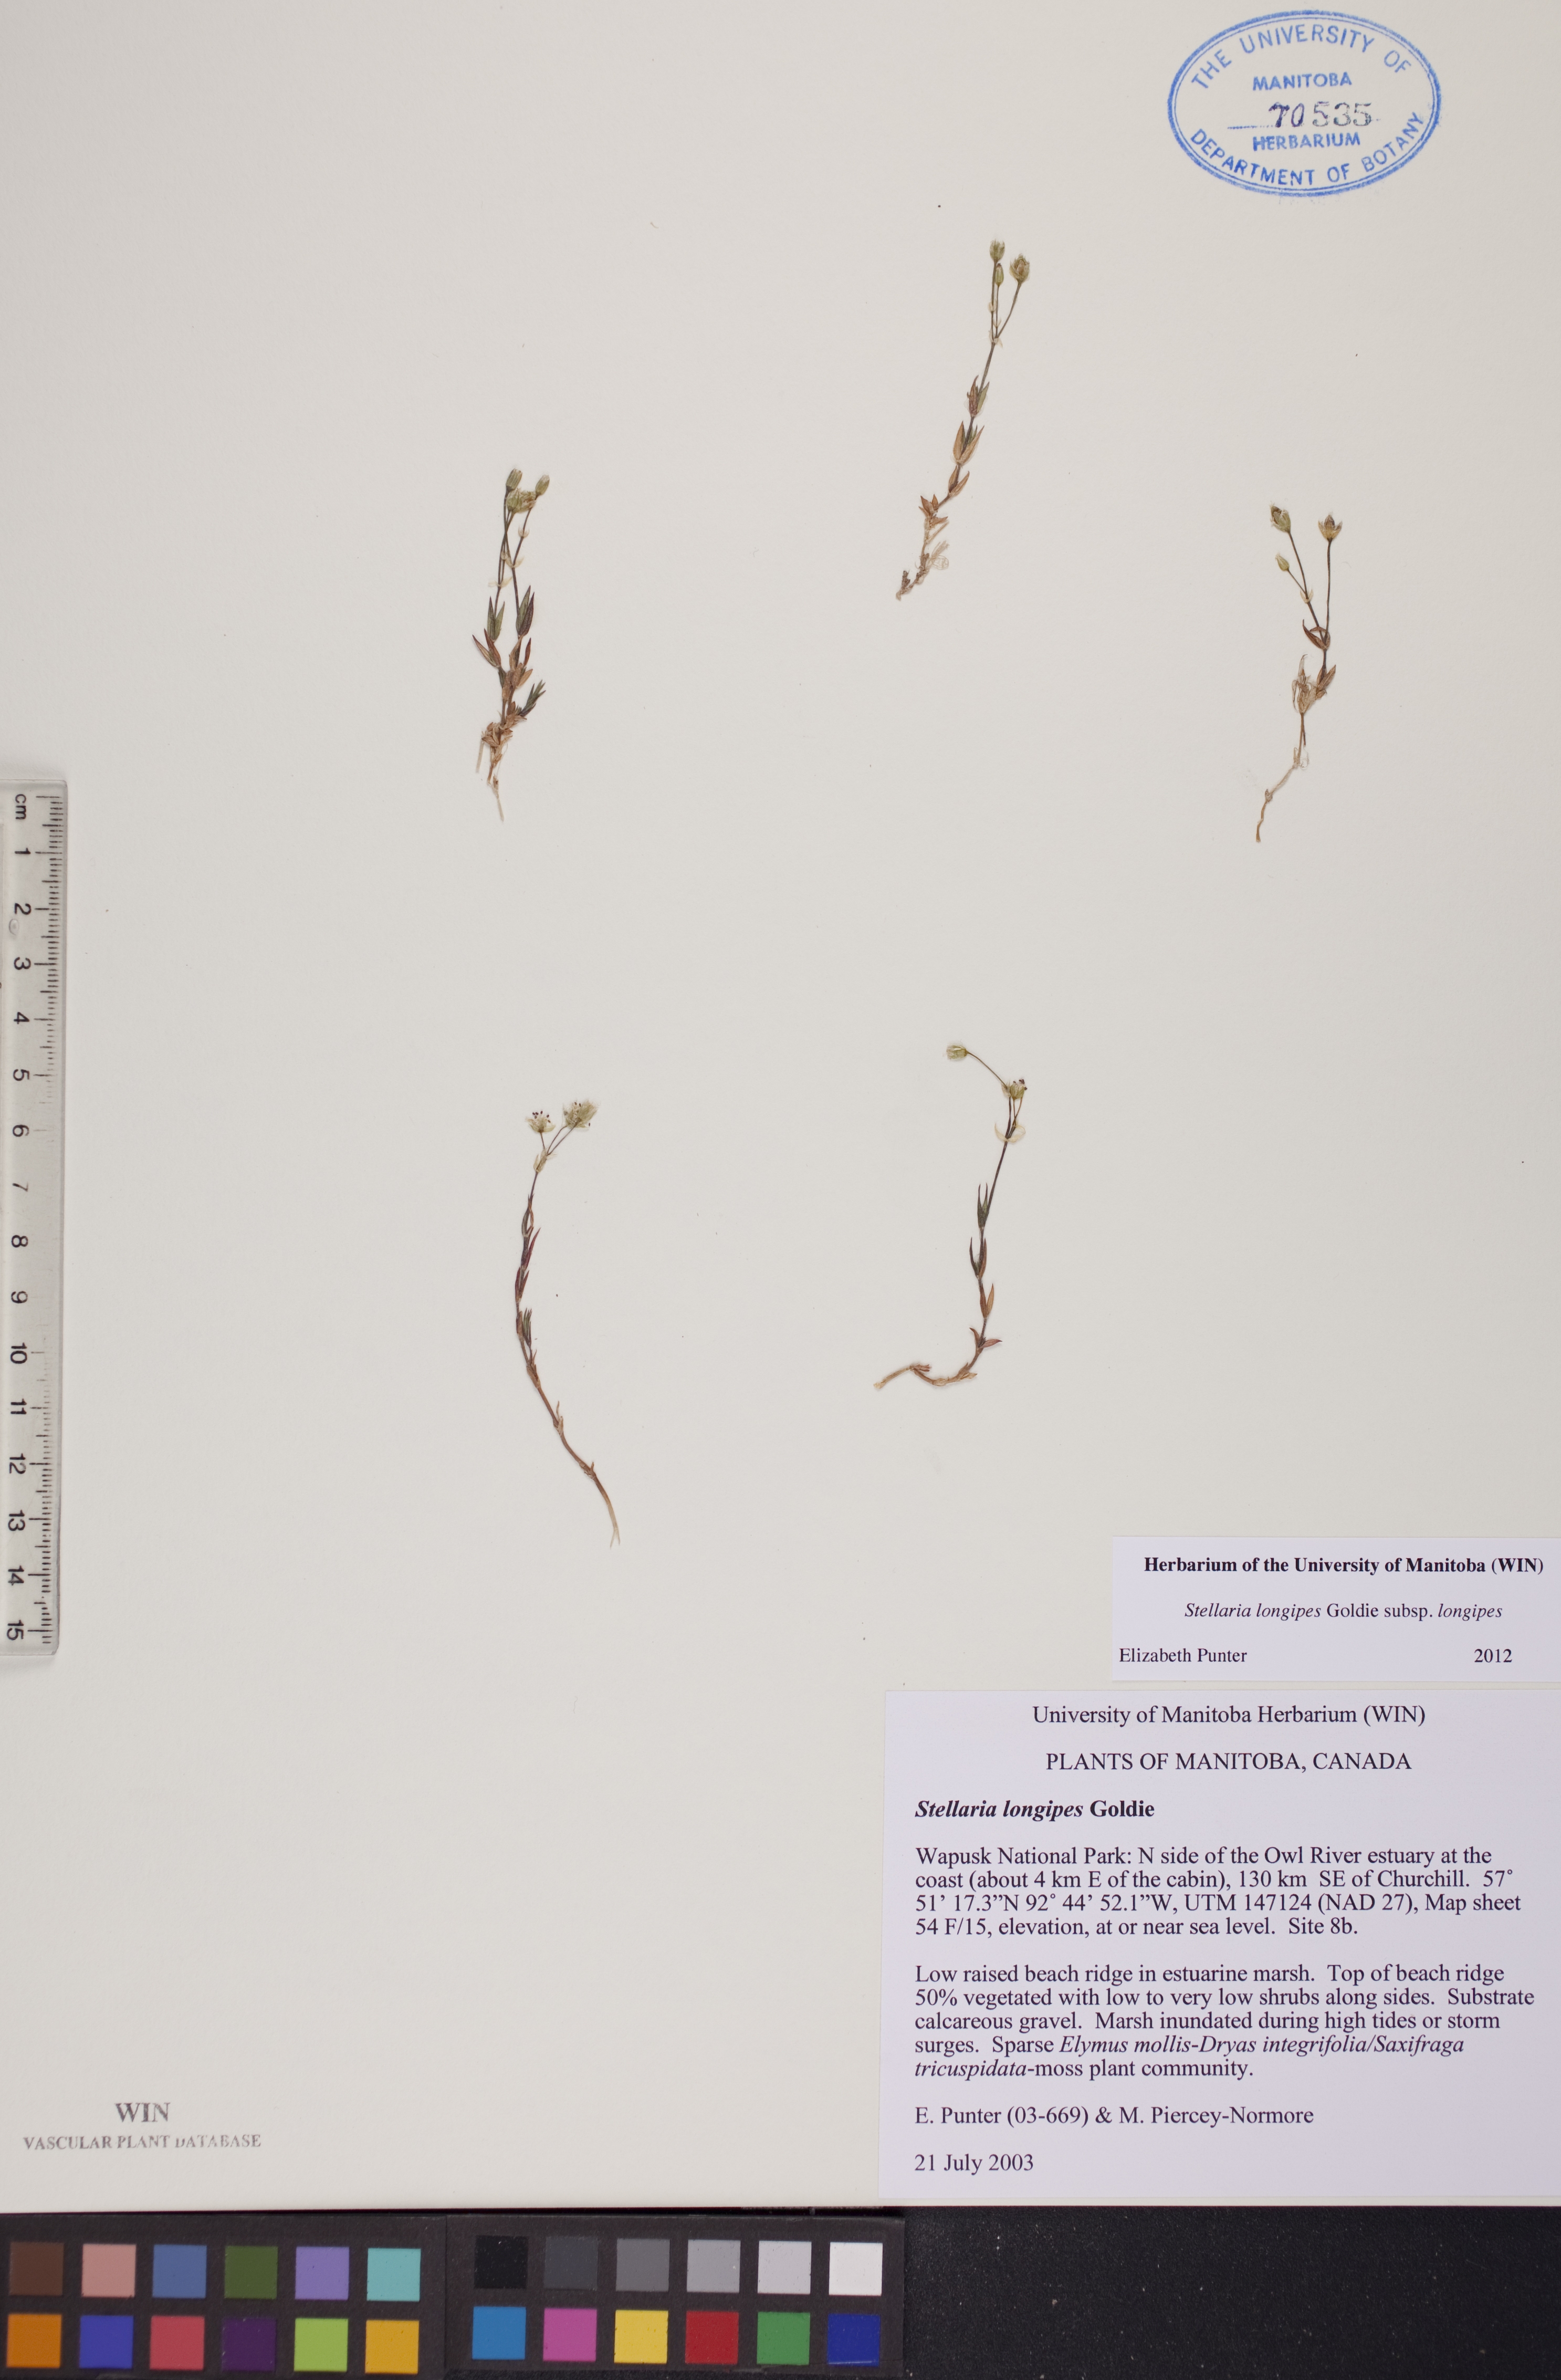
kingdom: Plantae
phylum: Tracheophyta
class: Magnoliopsida
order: Caryophyllales
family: Caryophyllaceae
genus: Stellaria
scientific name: Stellaria longipes
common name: Goldie's starwort
